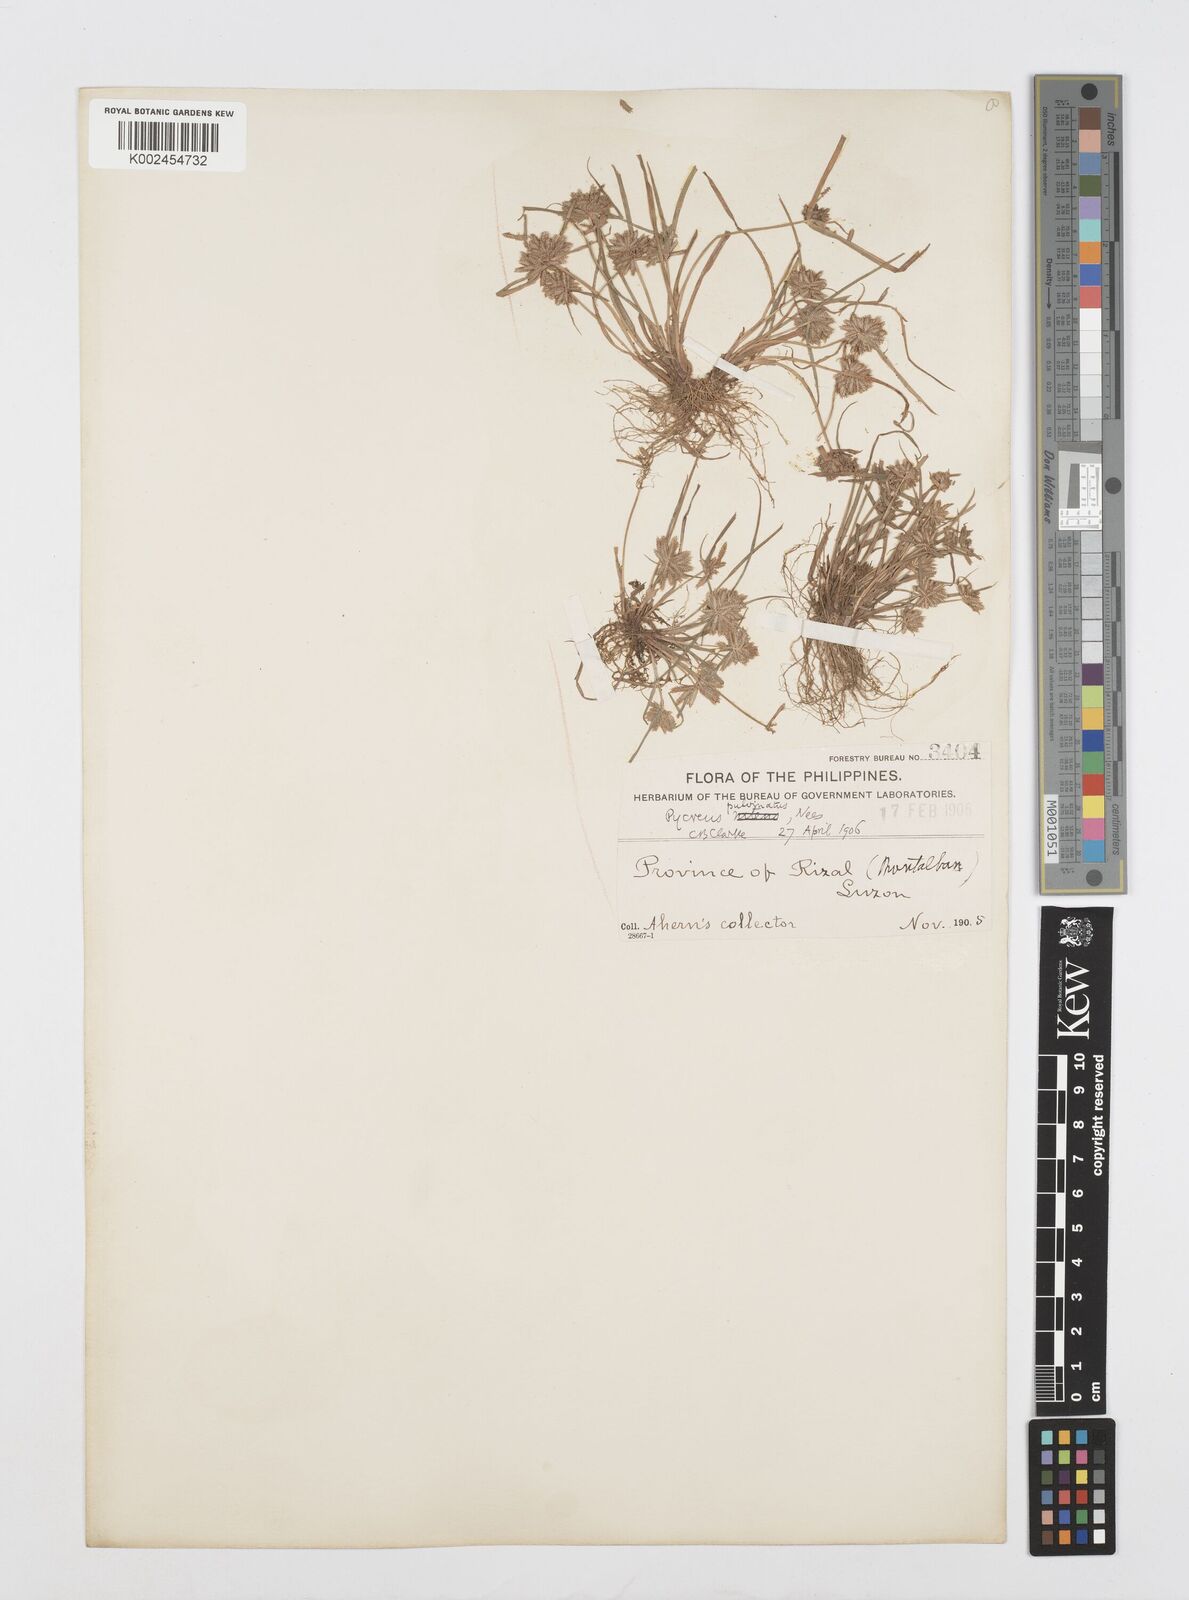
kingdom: Plantae
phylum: Tracheophyta
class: Liliopsida
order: Poales
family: Cyperaceae
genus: Cyperus
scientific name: Cyperus pumilus
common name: Low flatsedge
